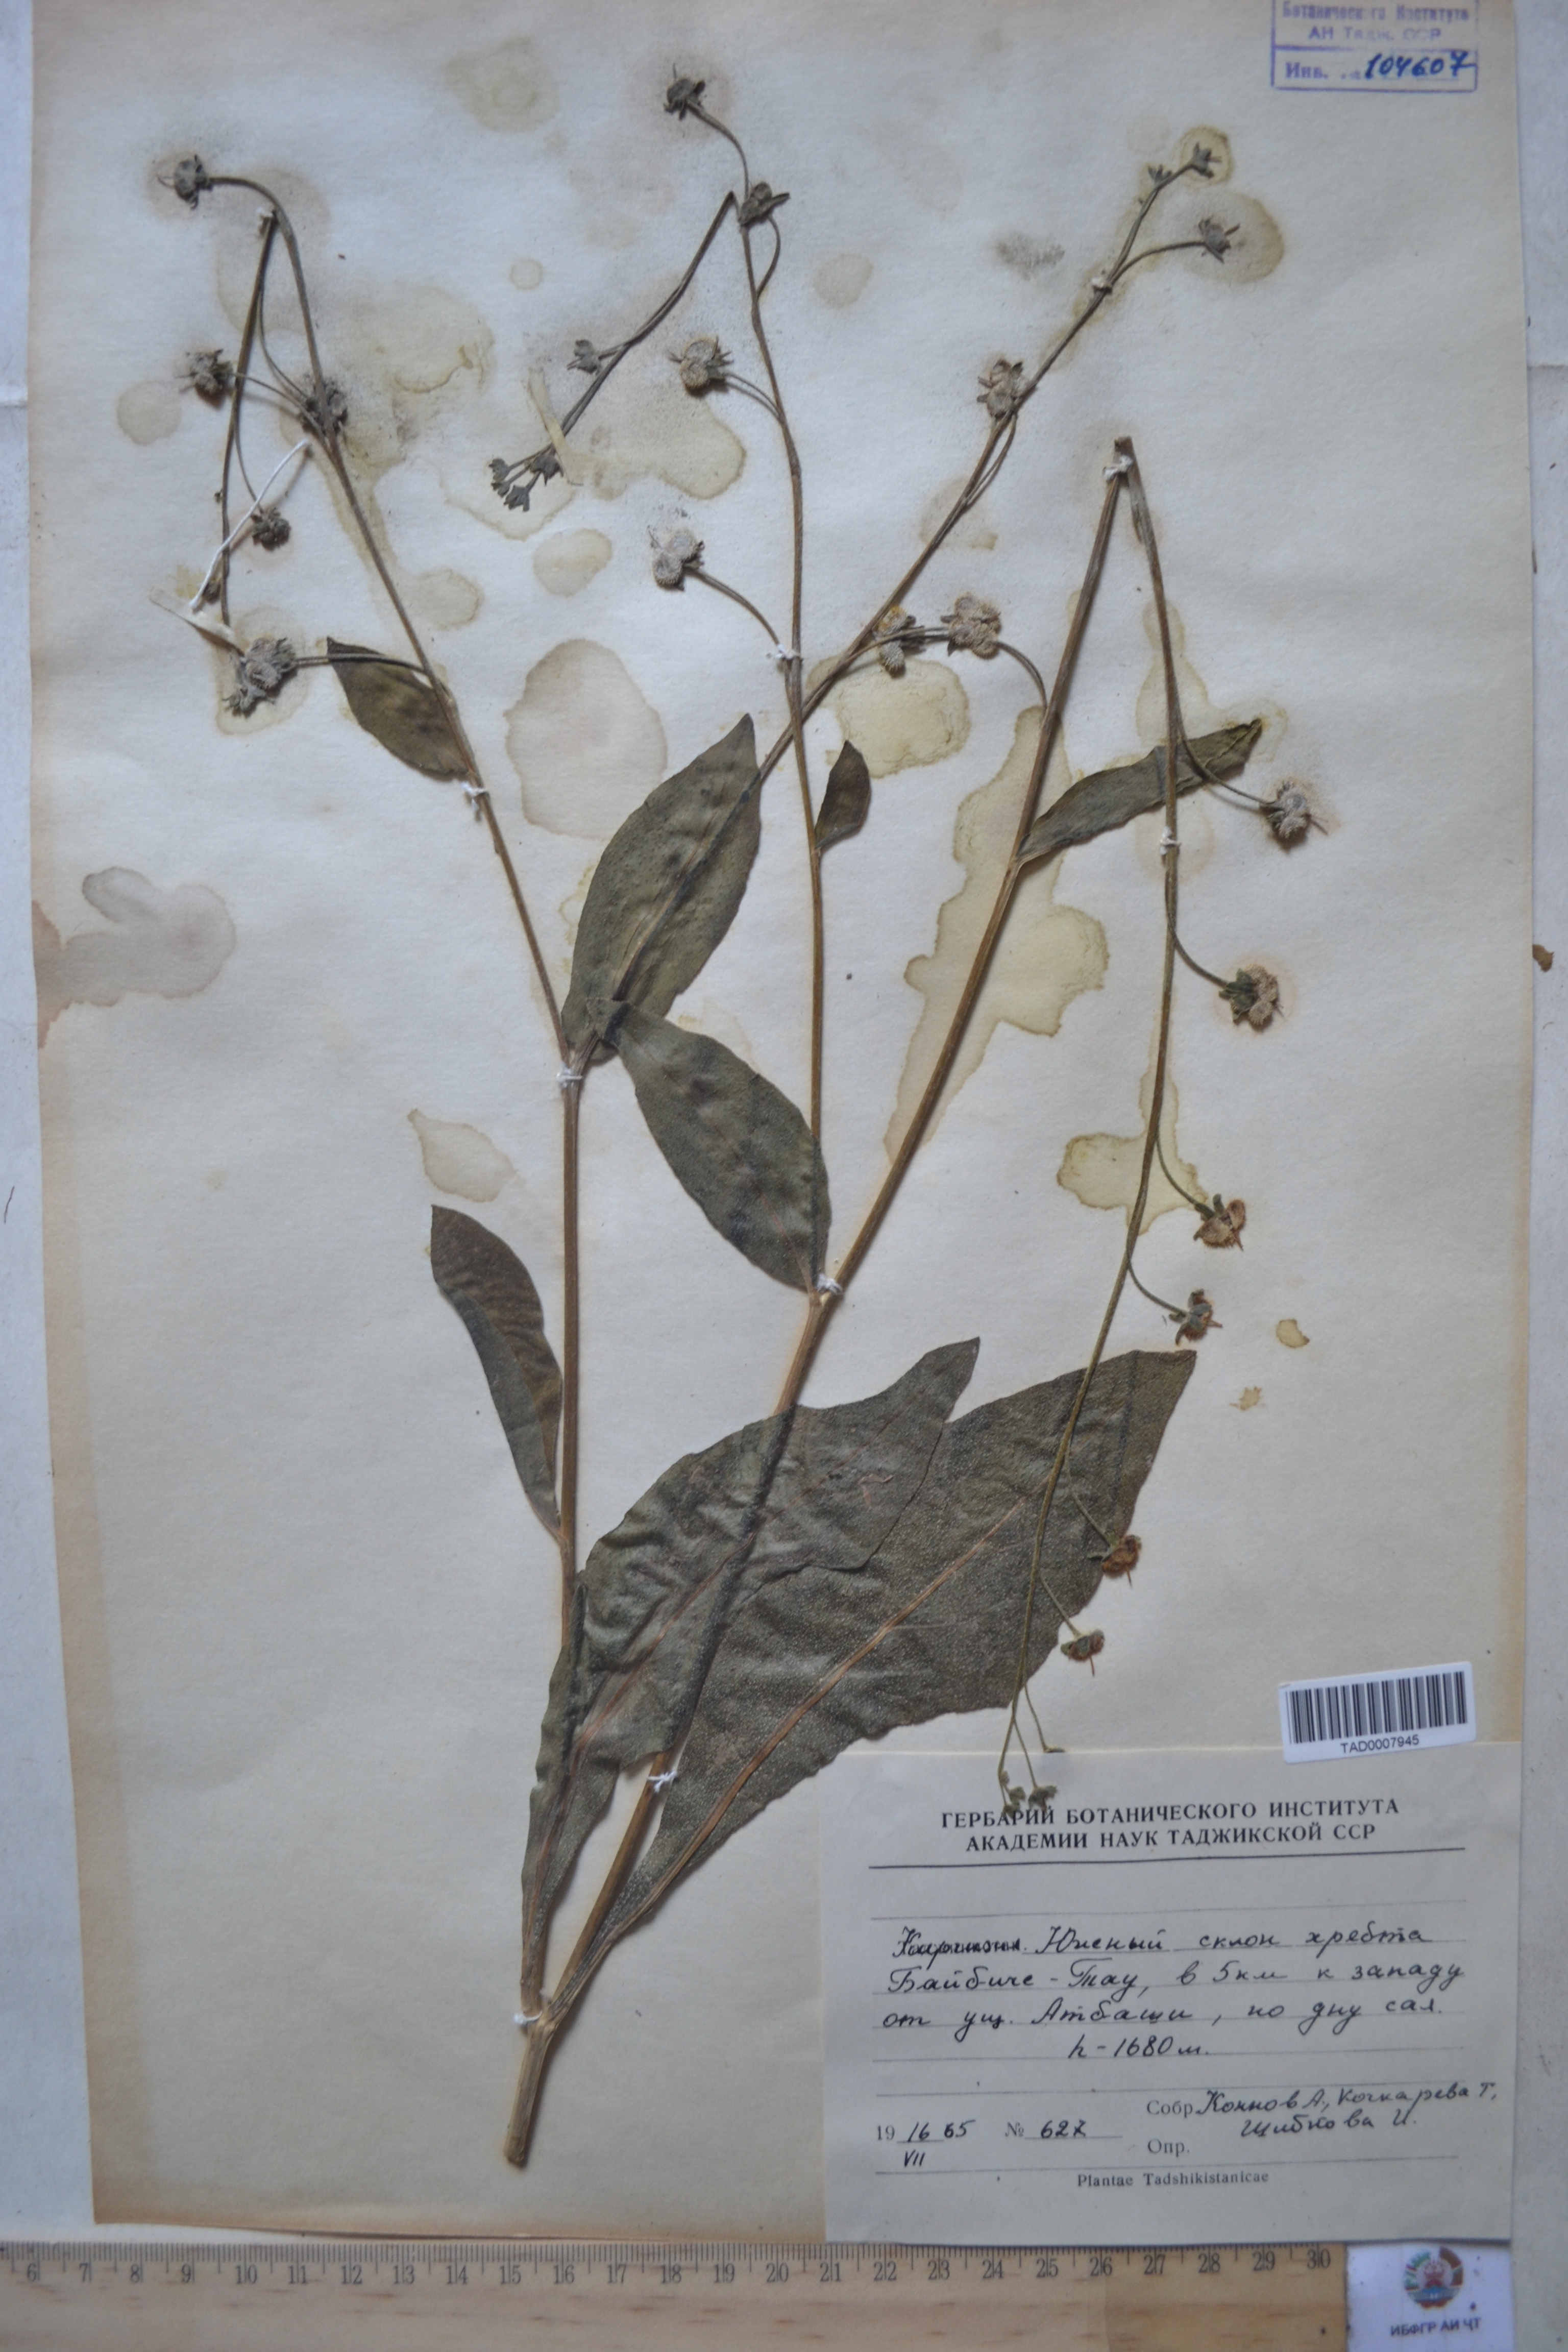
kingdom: Plantae
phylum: Tracheophyta
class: Magnoliopsida
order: Boraginales
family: Boraginaceae
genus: Lindelofia
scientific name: Lindelofia hissarica
